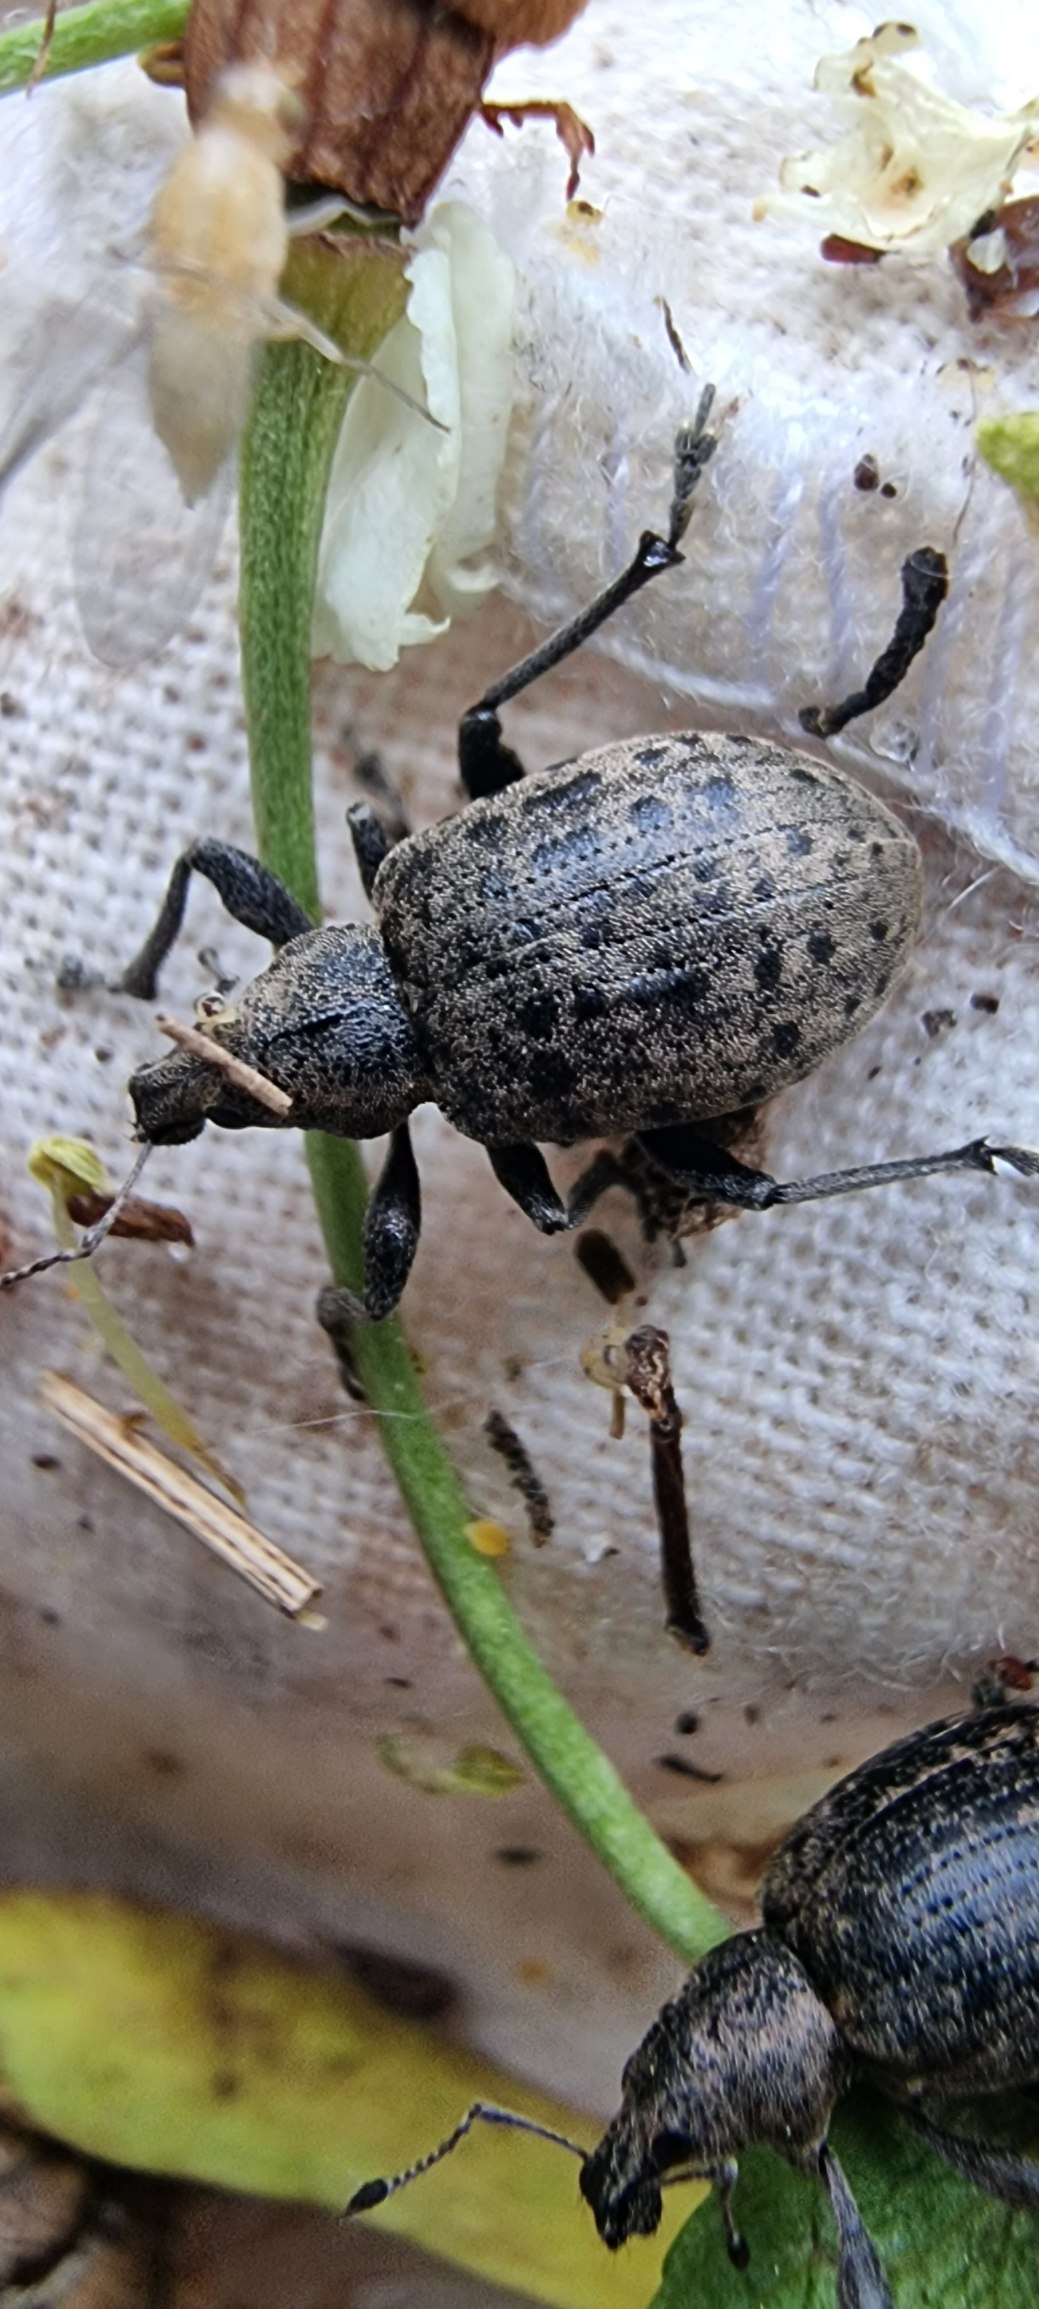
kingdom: Animalia
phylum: Arthropoda
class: Insecta
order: Coleoptera
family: Curculionidae
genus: Liophloeus
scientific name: Liophloeus tessulatus
